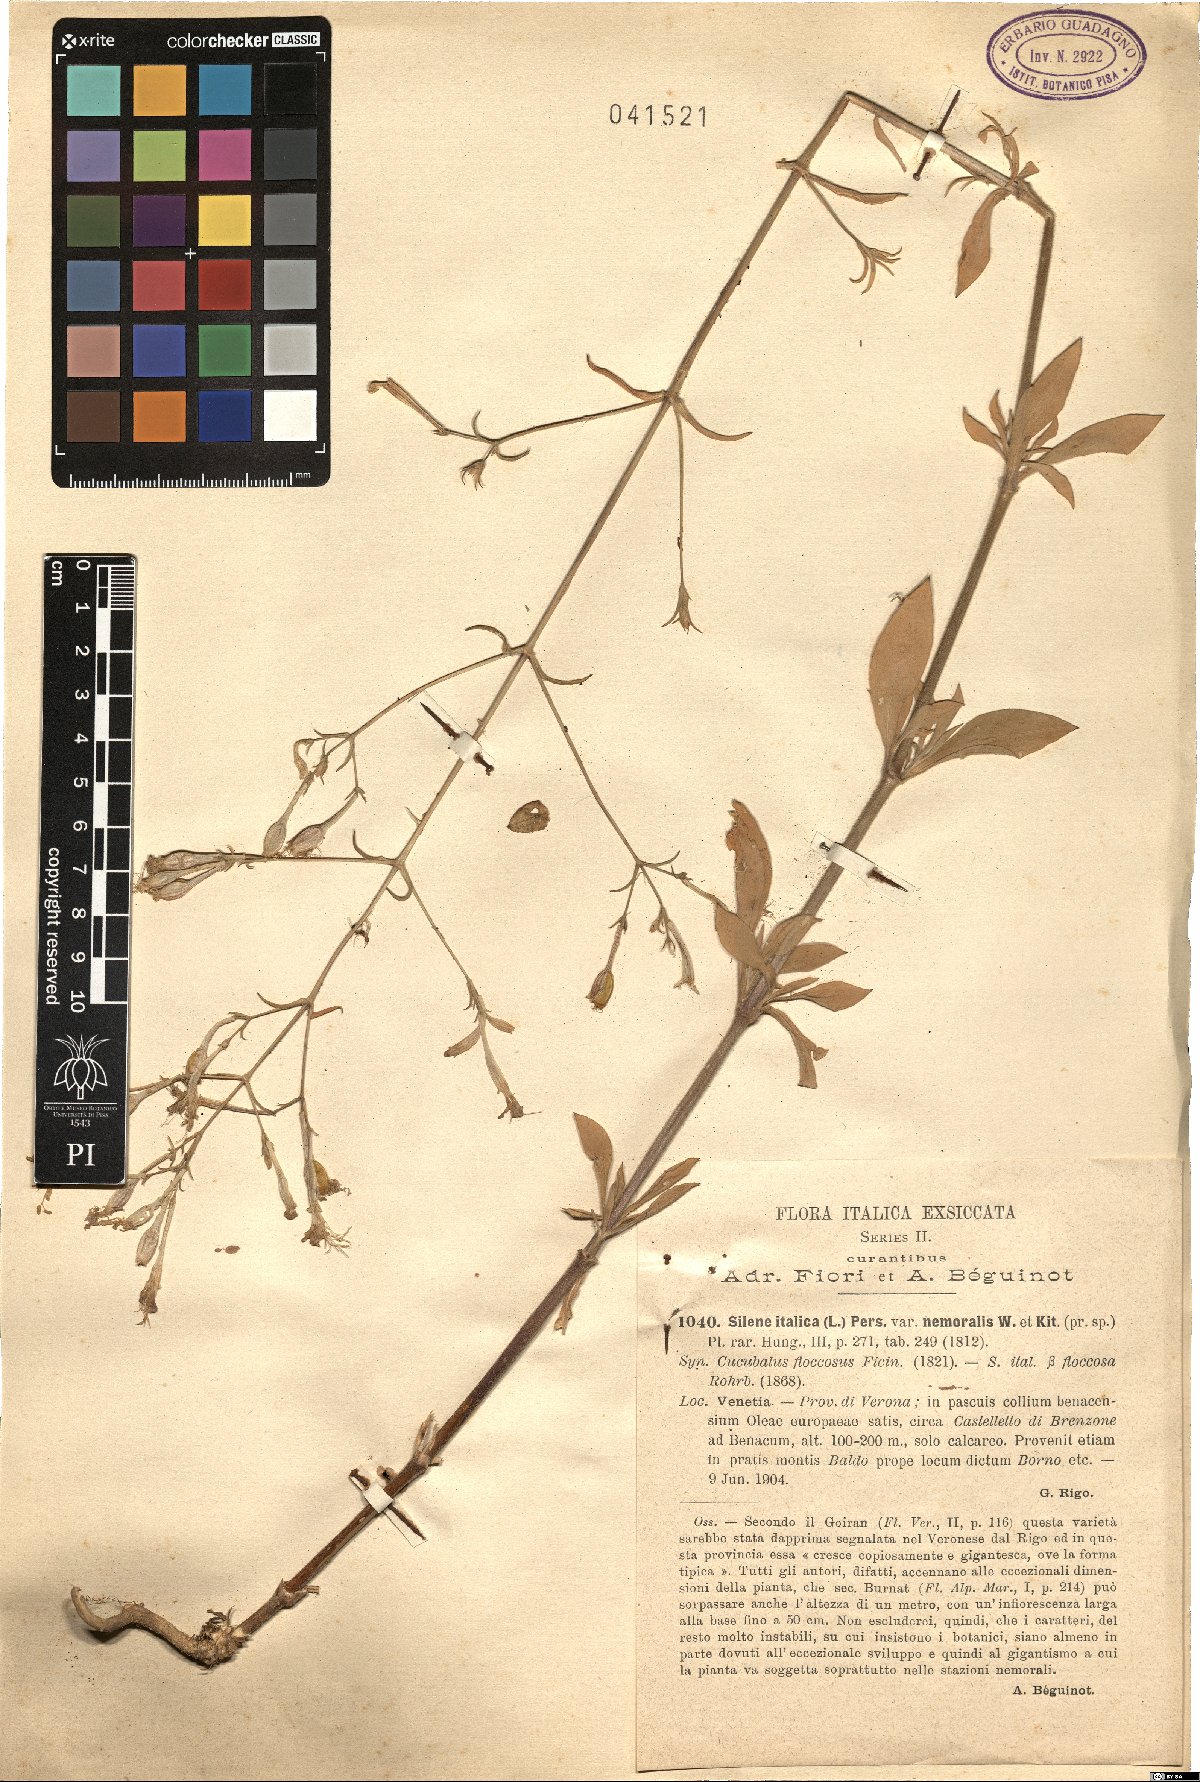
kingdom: Plantae
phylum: Tracheophyta
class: Magnoliopsida
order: Caryophyllales
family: Caryophyllaceae
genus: Silene
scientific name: Silene nemoralis
